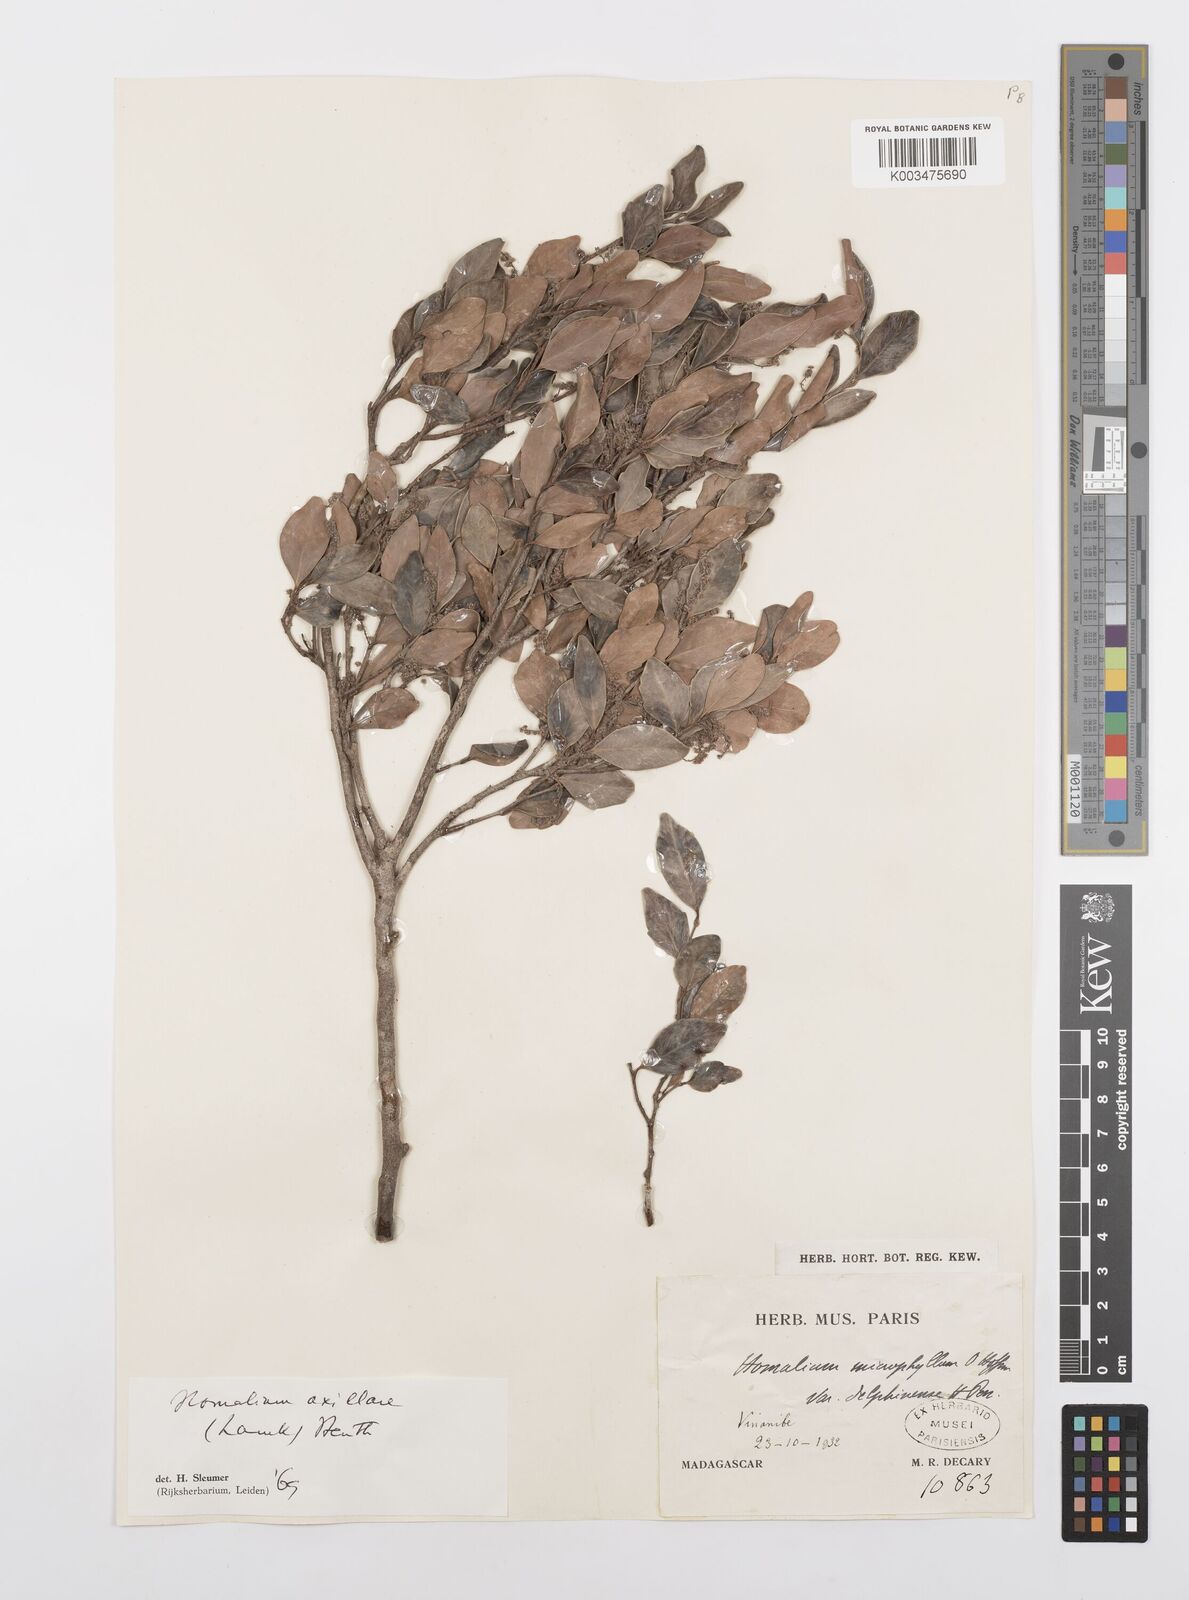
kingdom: Plantae
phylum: Tracheophyta
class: Magnoliopsida
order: Malpighiales
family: Salicaceae
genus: Homalium
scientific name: Homalium axillare
